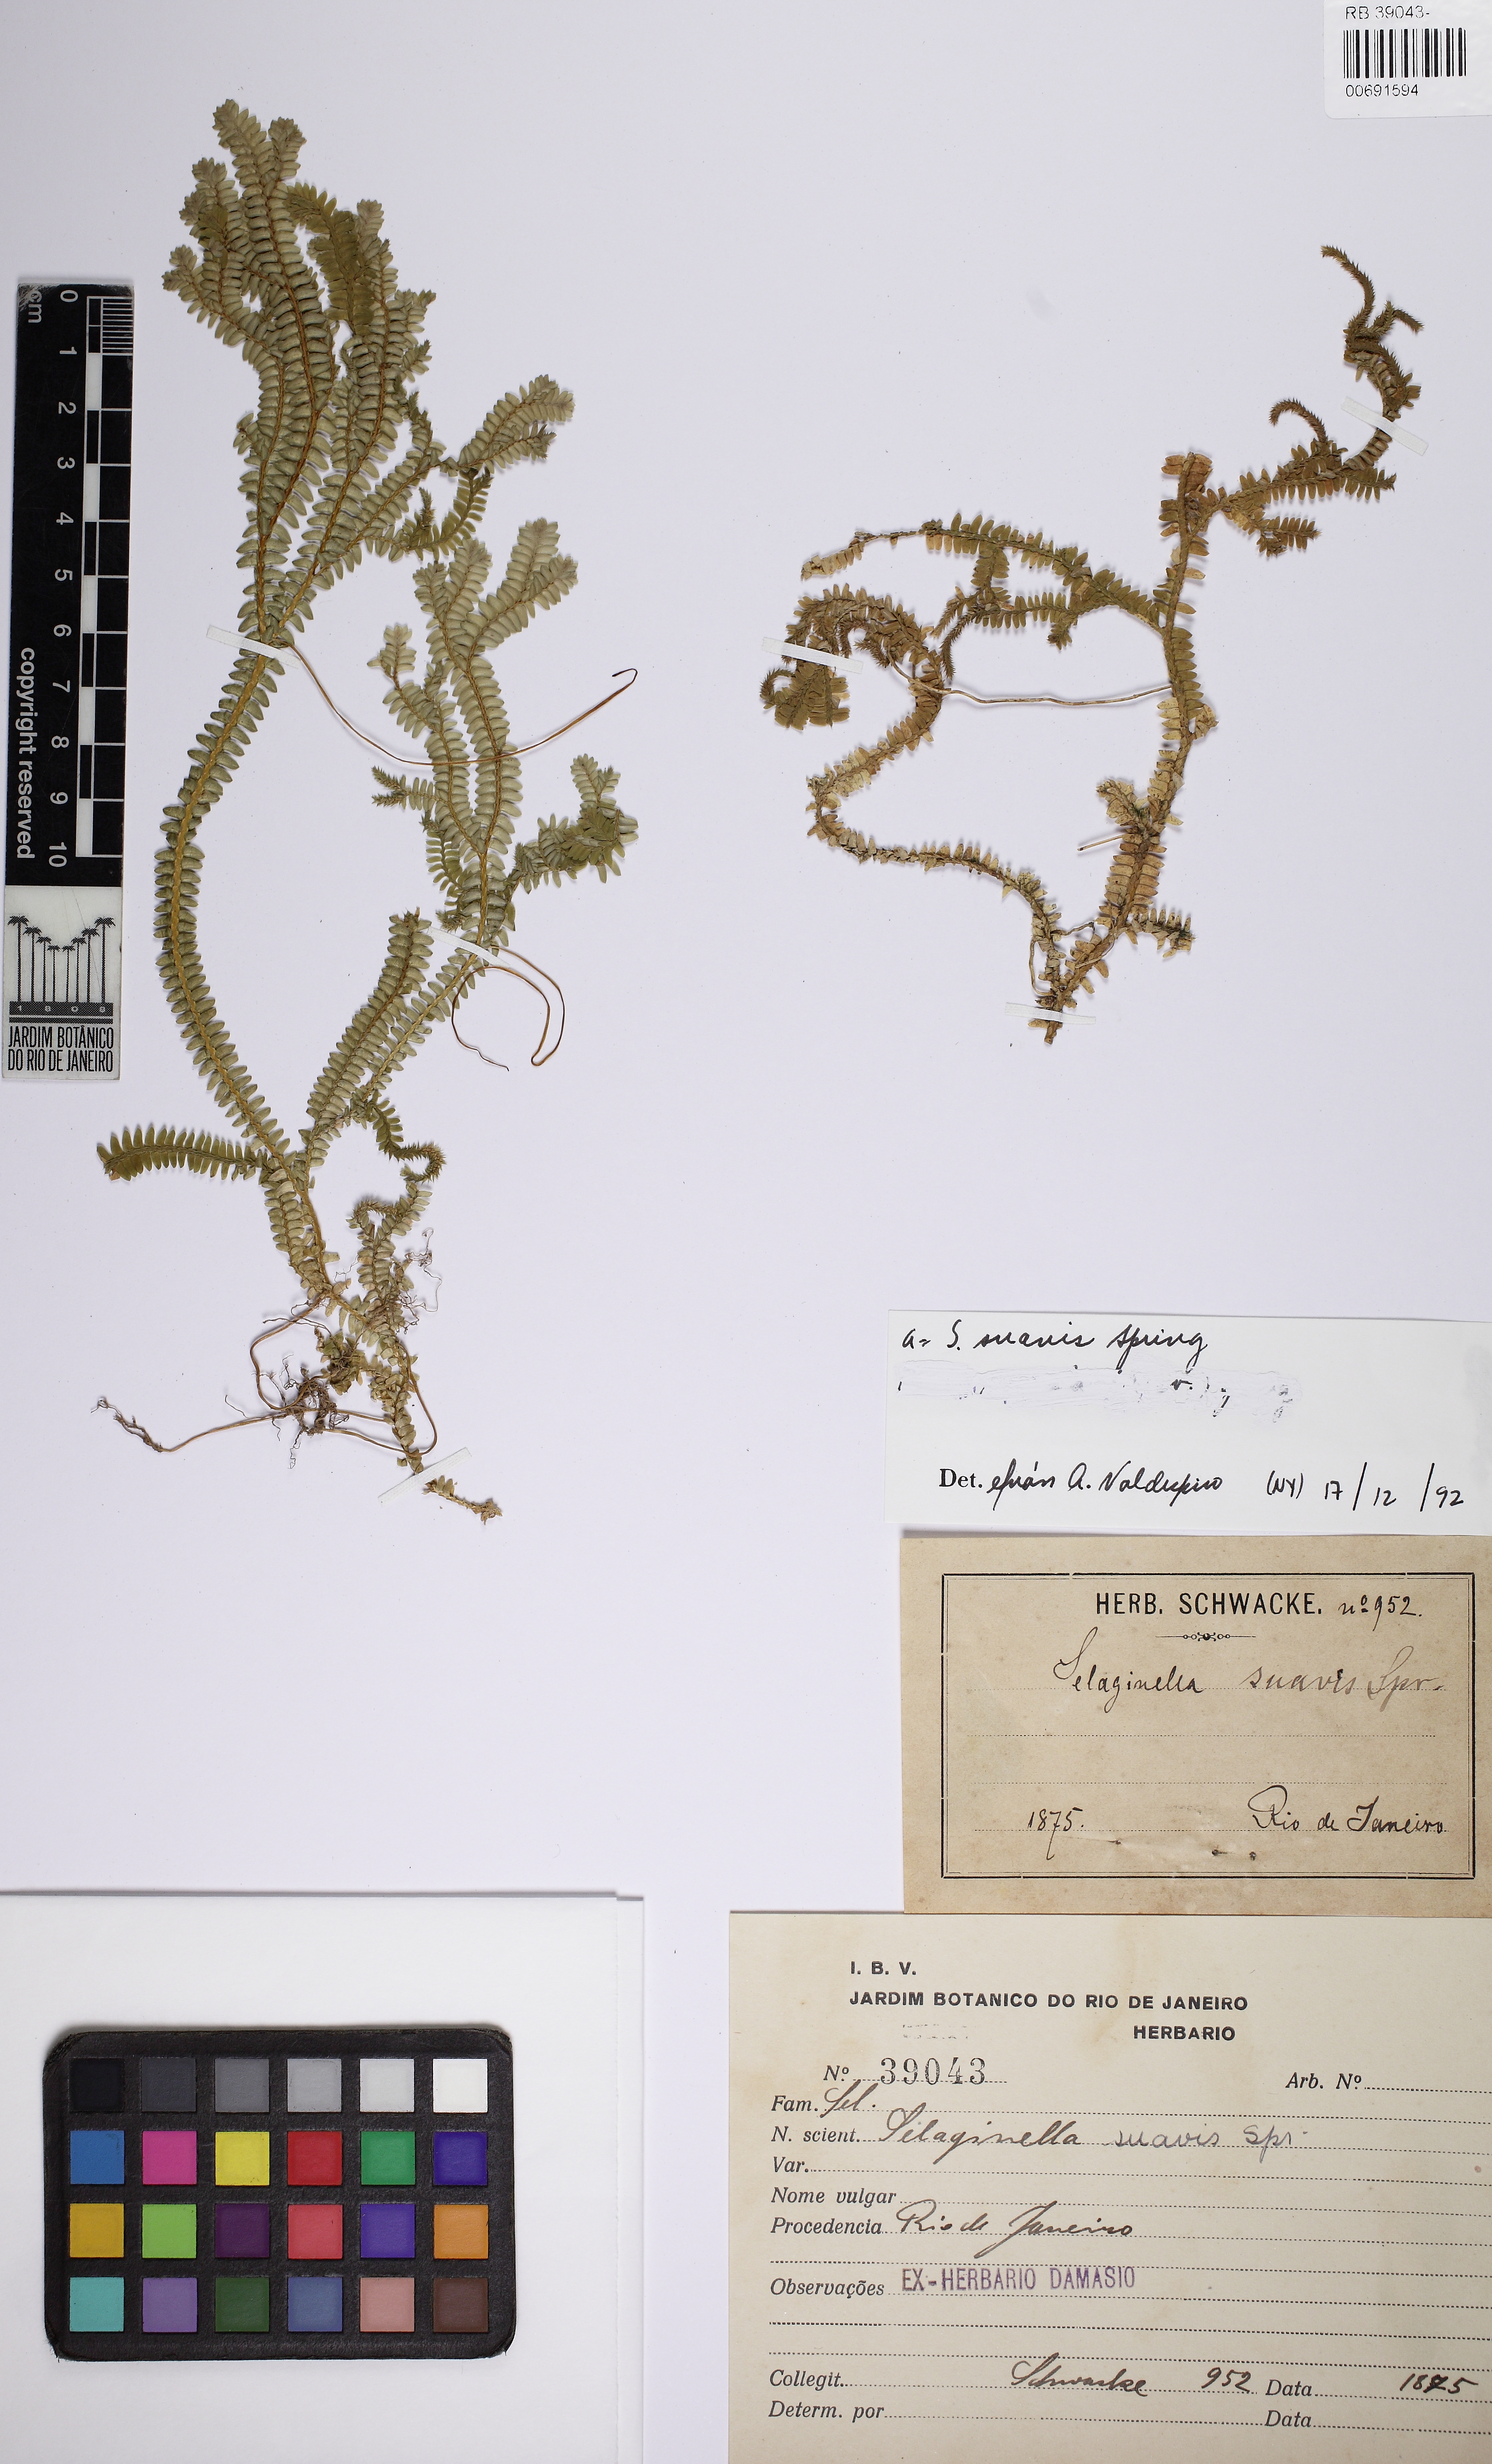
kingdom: Plantae
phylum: Tracheophyta
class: Lycopodiopsida
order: Selaginellales
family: Selaginellaceae
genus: Selaginella
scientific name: Selaginella flexuosa
